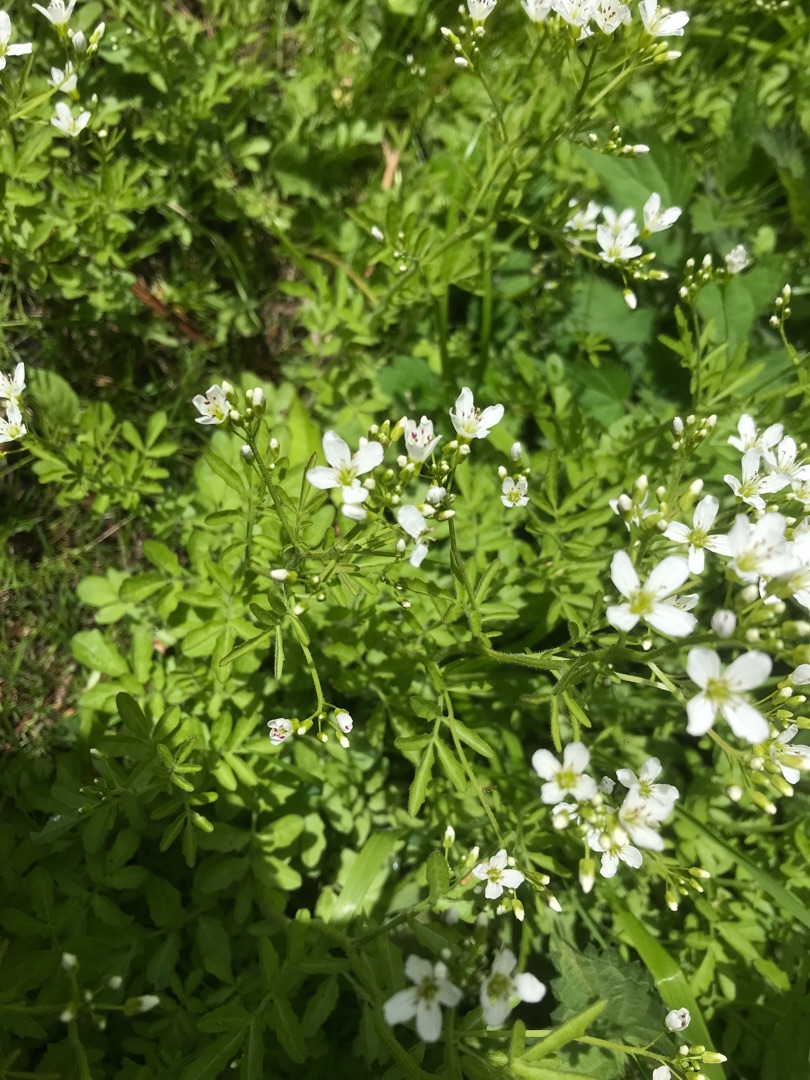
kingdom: Plantae
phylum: Tracheophyta
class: Magnoliopsida
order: Brassicales
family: Brassicaceae
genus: Cardamine
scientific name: Cardamine amara
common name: Vandkarse
